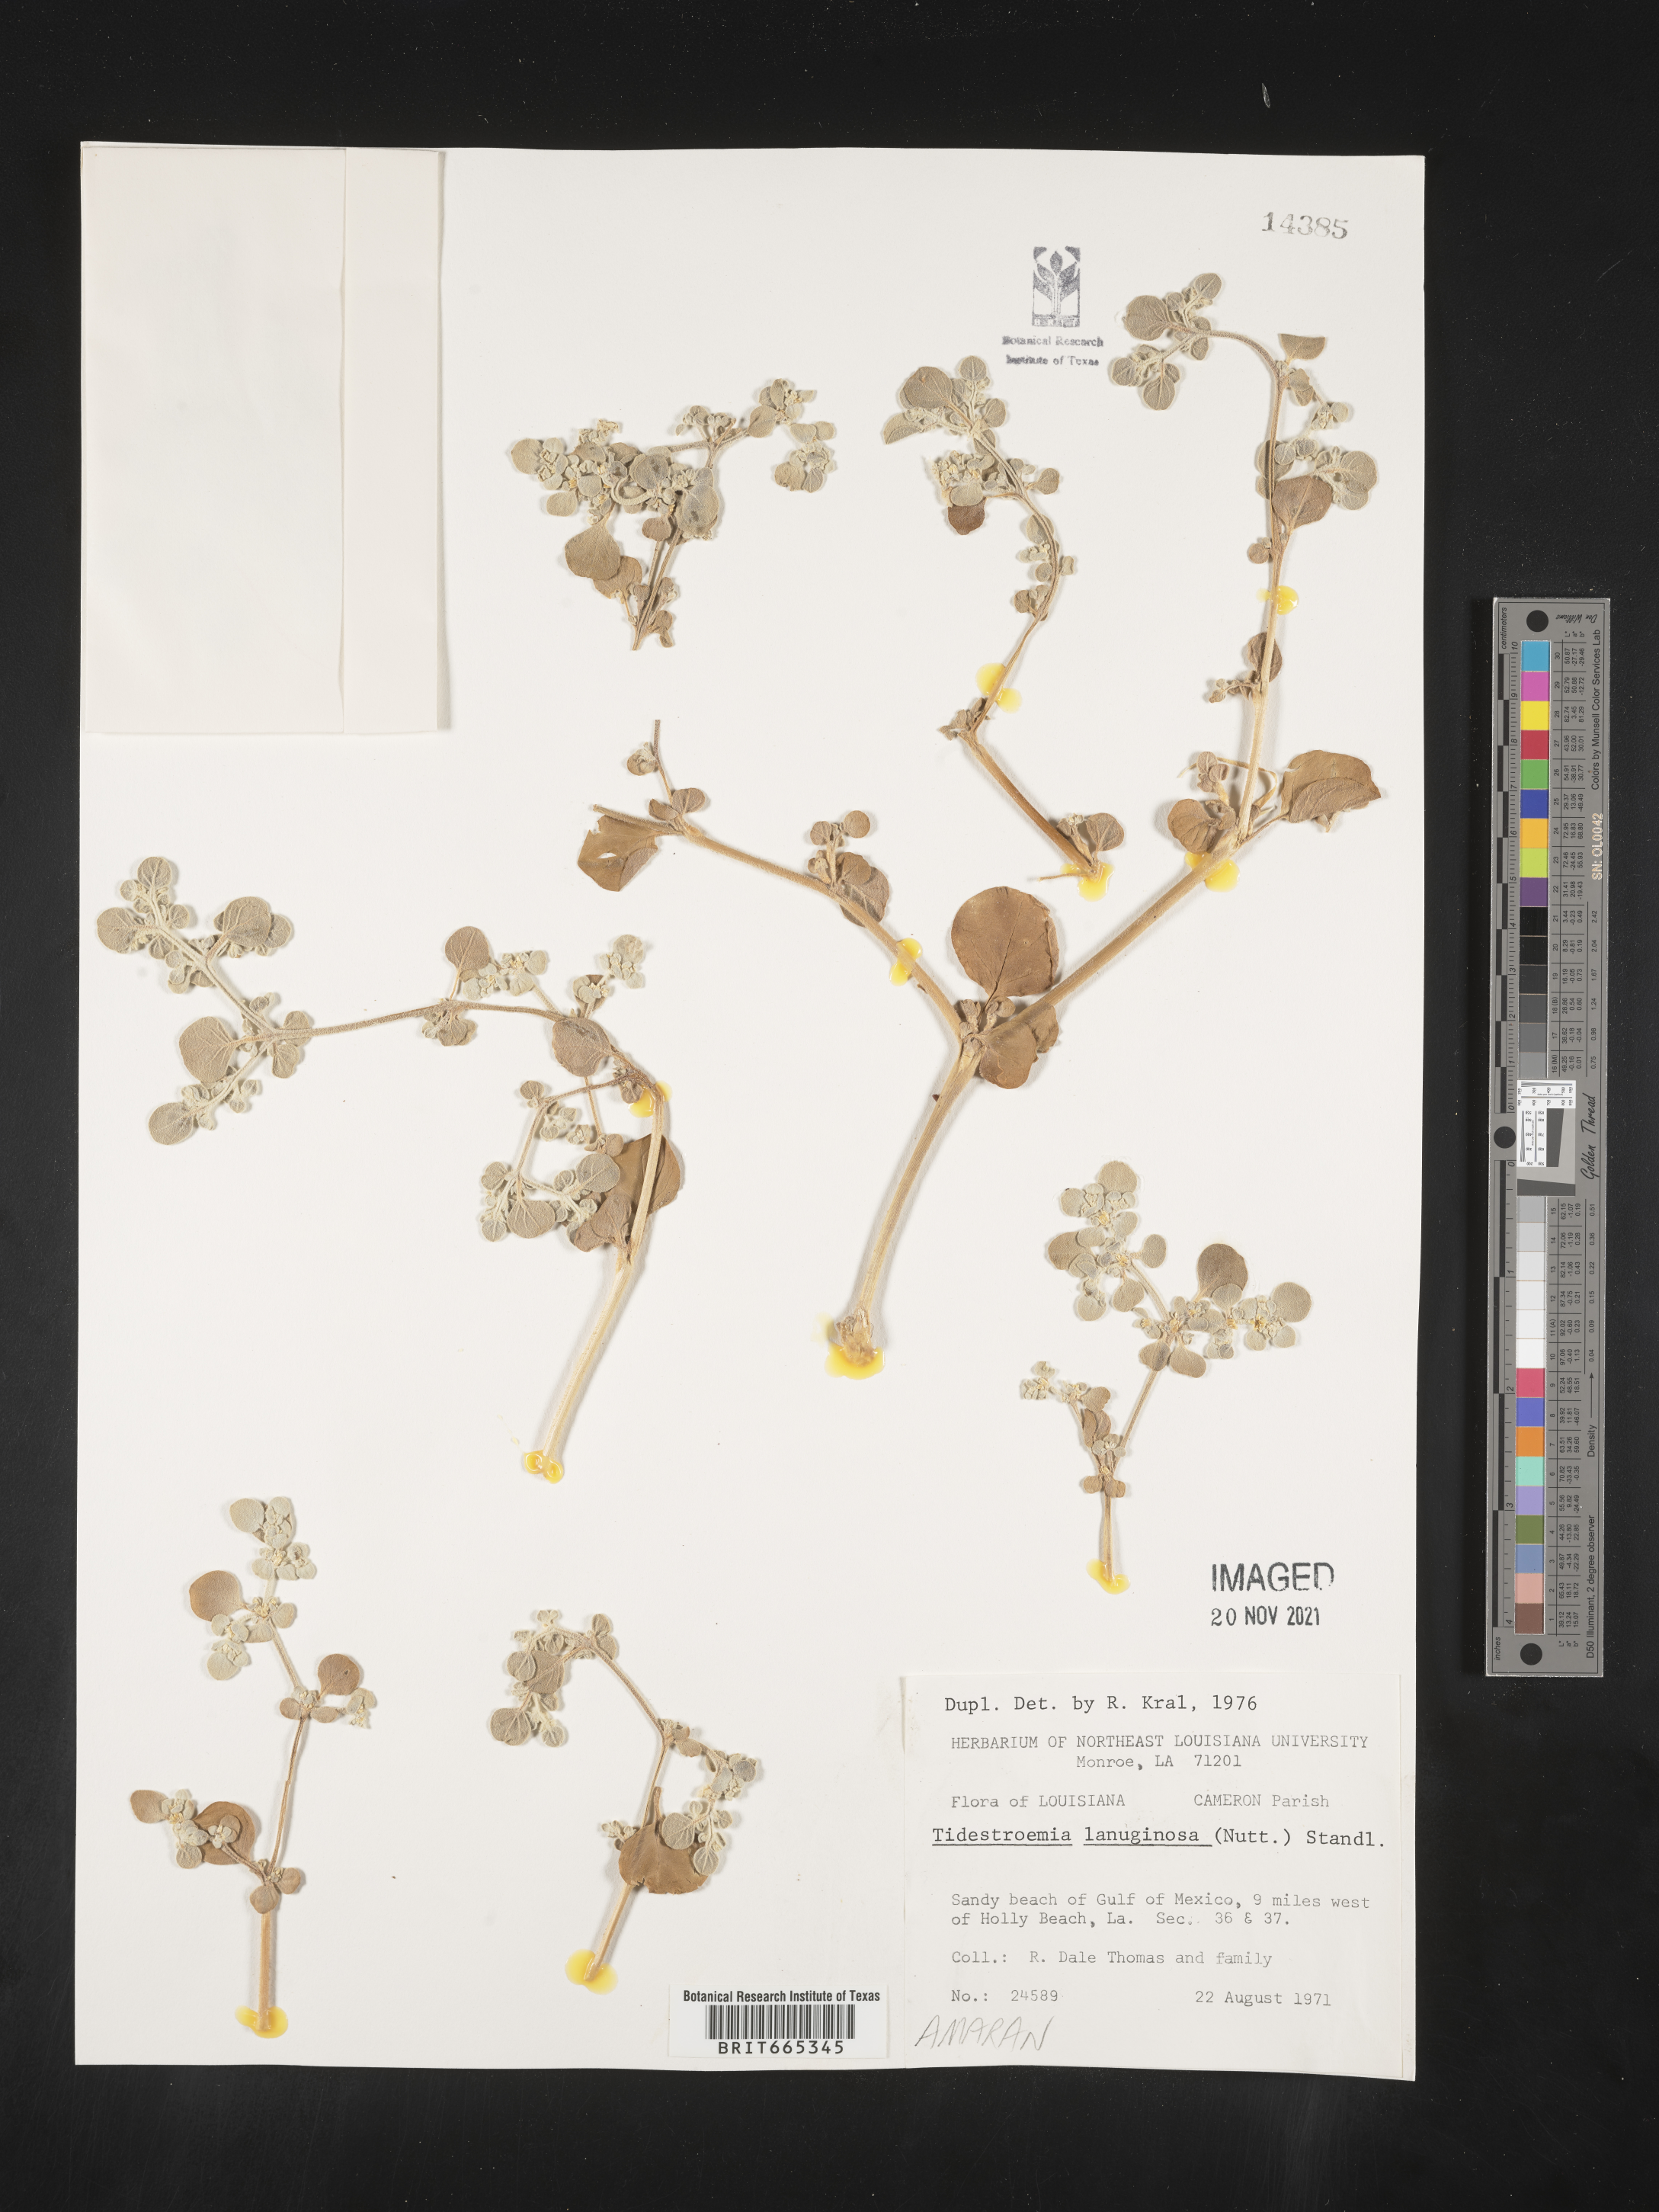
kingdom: Plantae
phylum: Tracheophyta
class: Magnoliopsida
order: Caryophyllales
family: Amaranthaceae
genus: Tidestromia
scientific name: Tidestromia lanuginosa
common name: Woolly tidestromia
